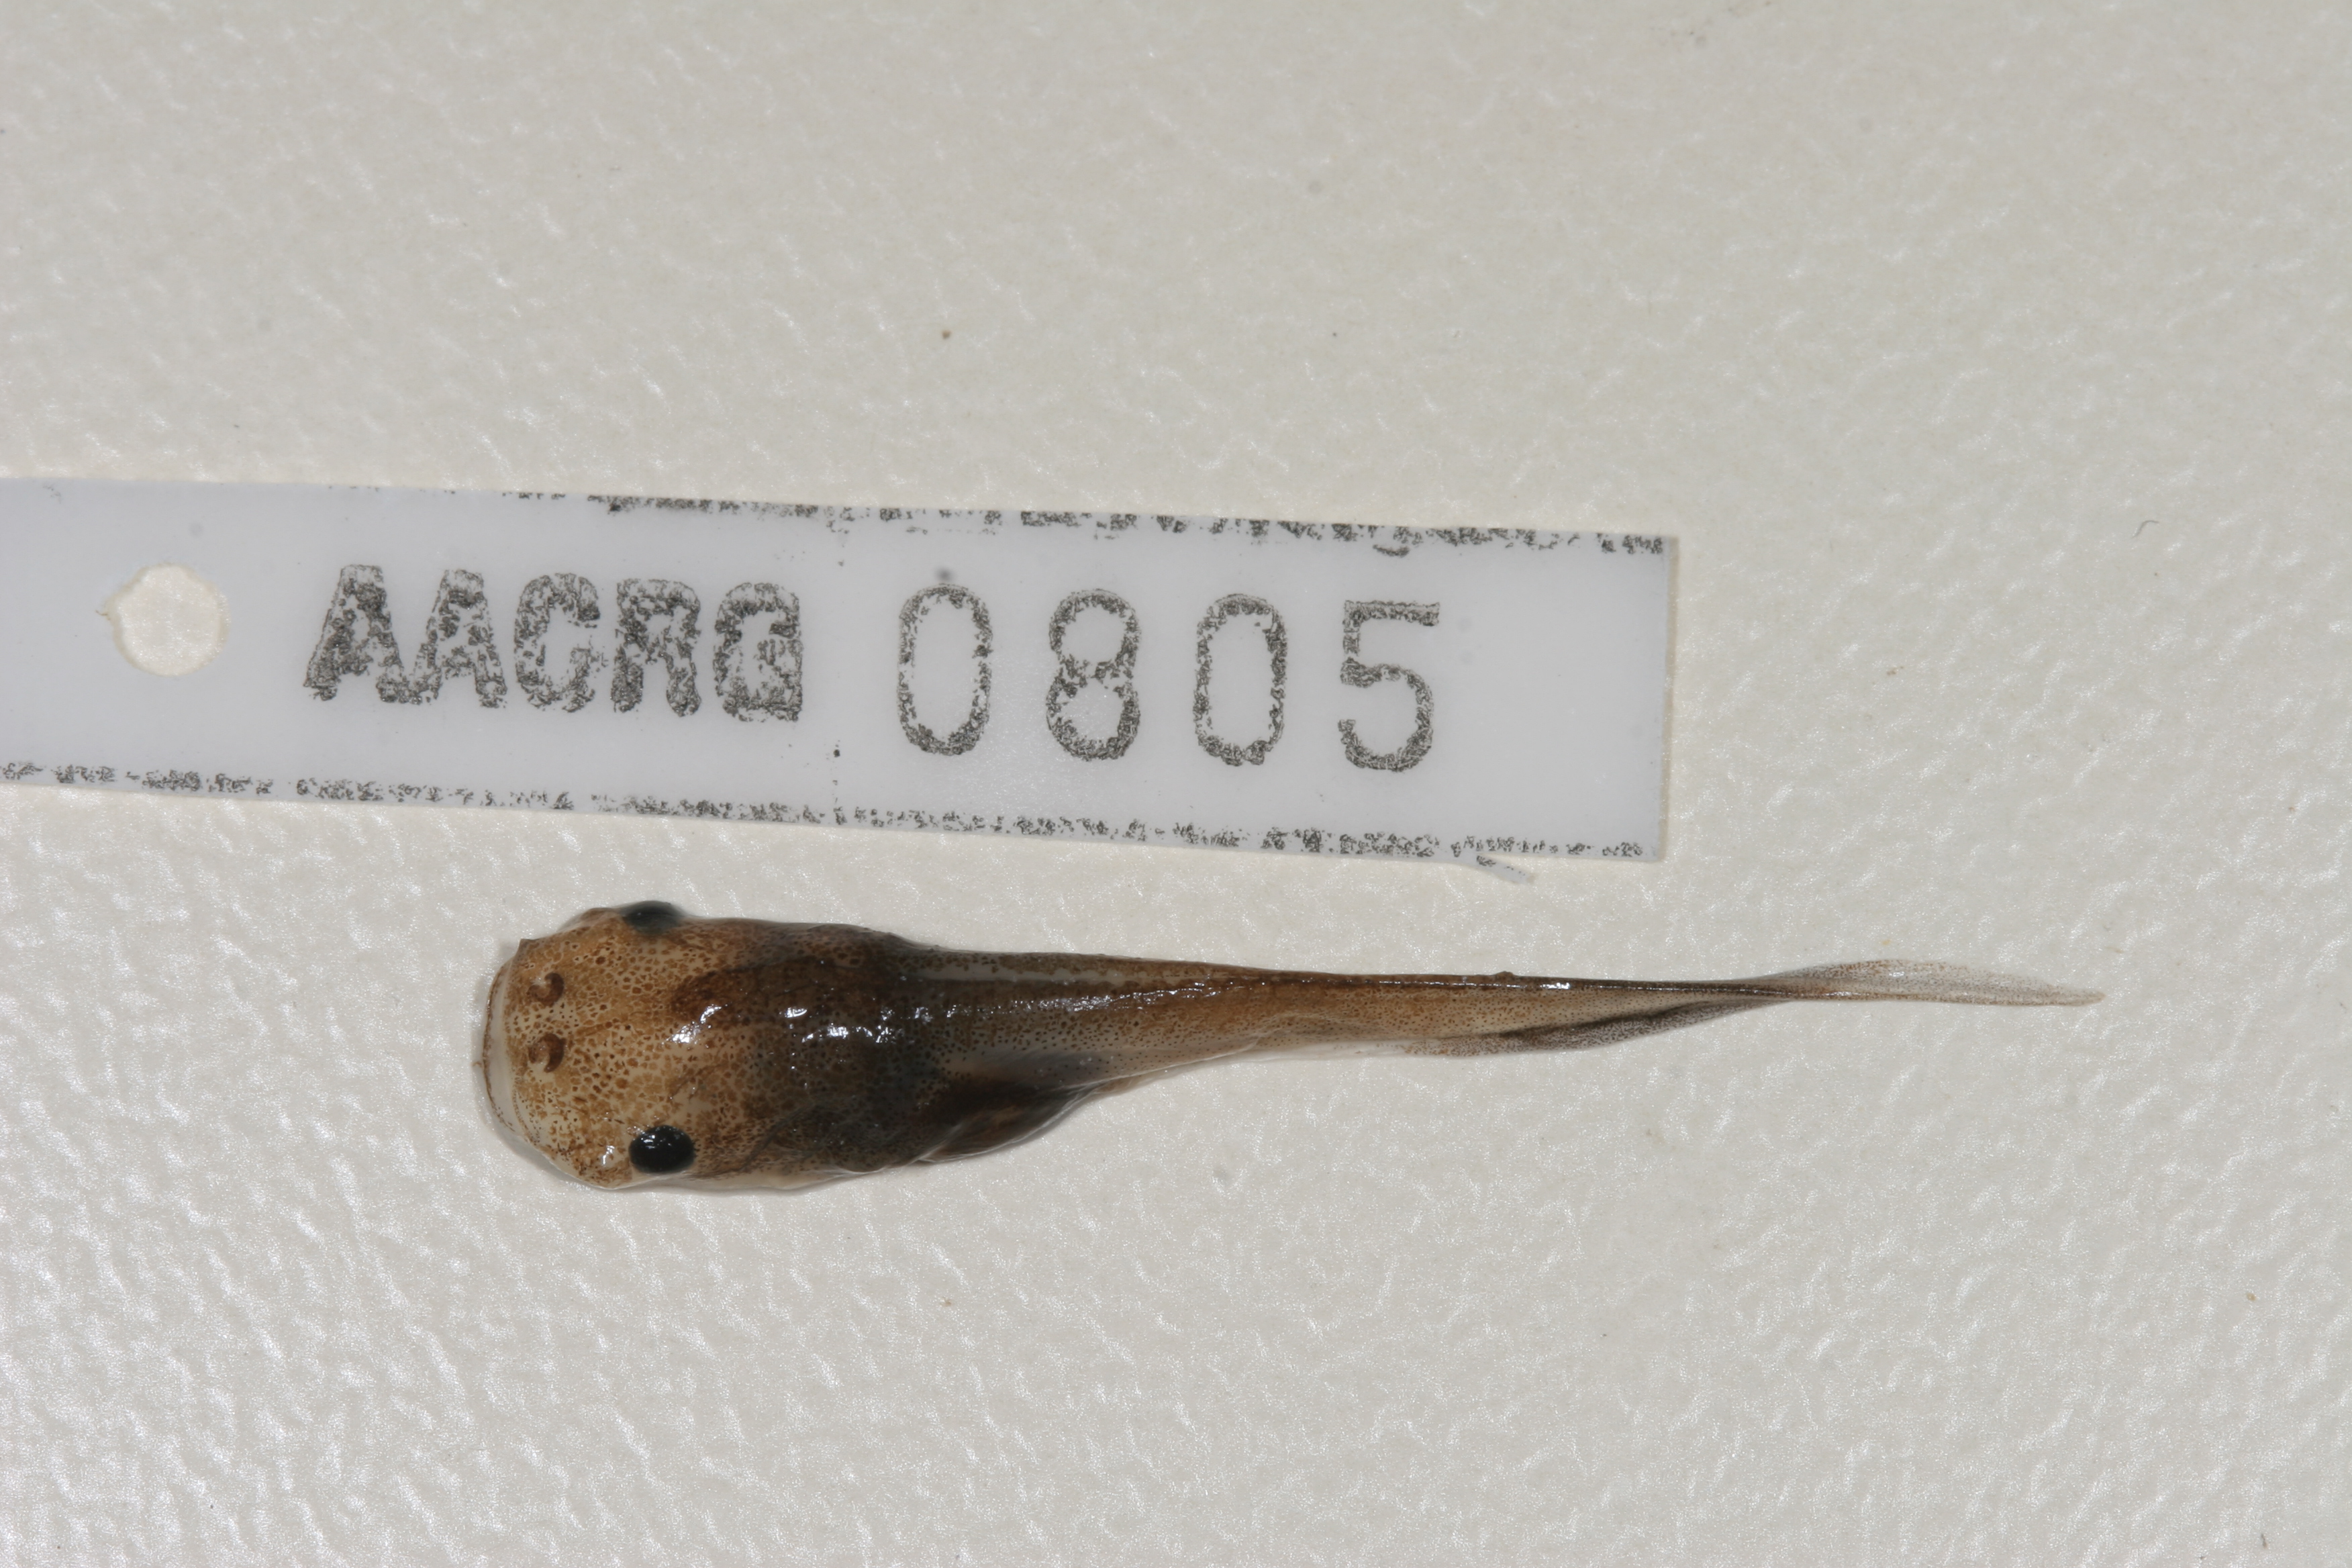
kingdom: Animalia
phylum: Chordata
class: Amphibia
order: Anura
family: Pipidae
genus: Xenopus
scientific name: Xenopus laevis
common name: African clawed frog
